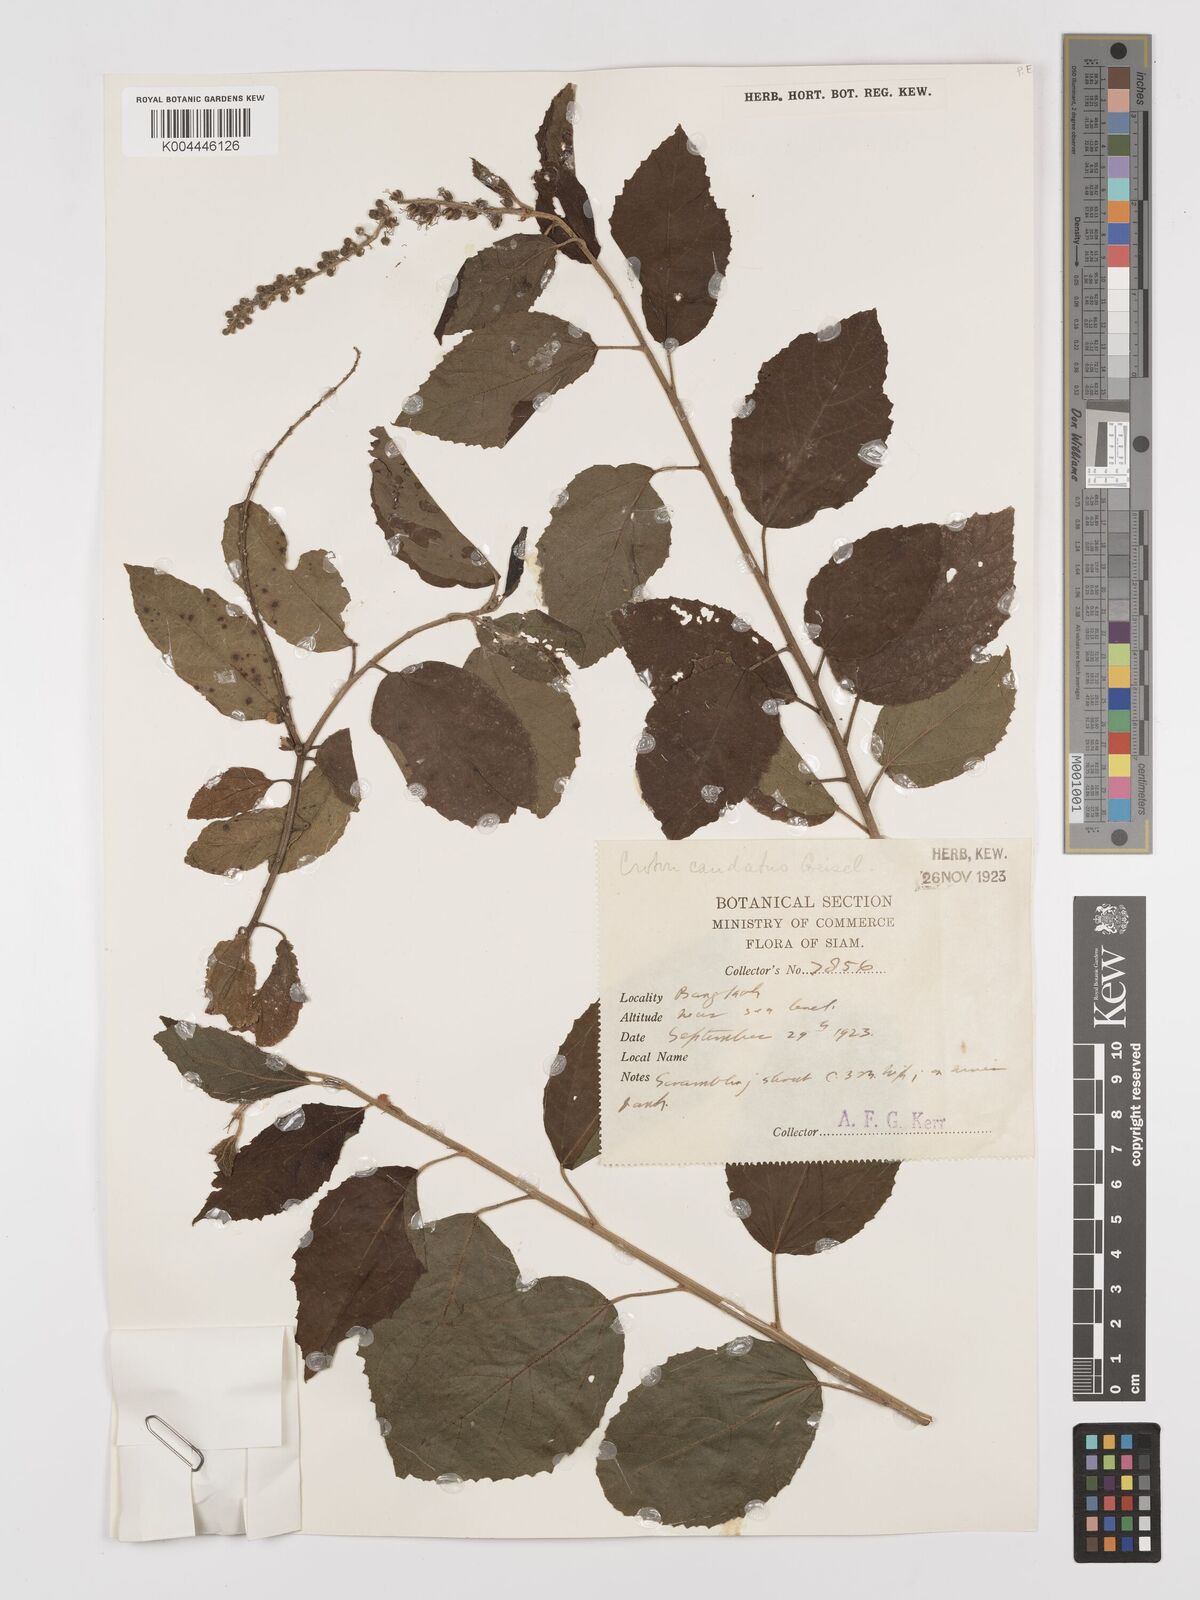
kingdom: Plantae
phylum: Tracheophyta
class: Magnoliopsida
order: Malpighiales
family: Euphorbiaceae
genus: Croton
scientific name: Croton caudatus
